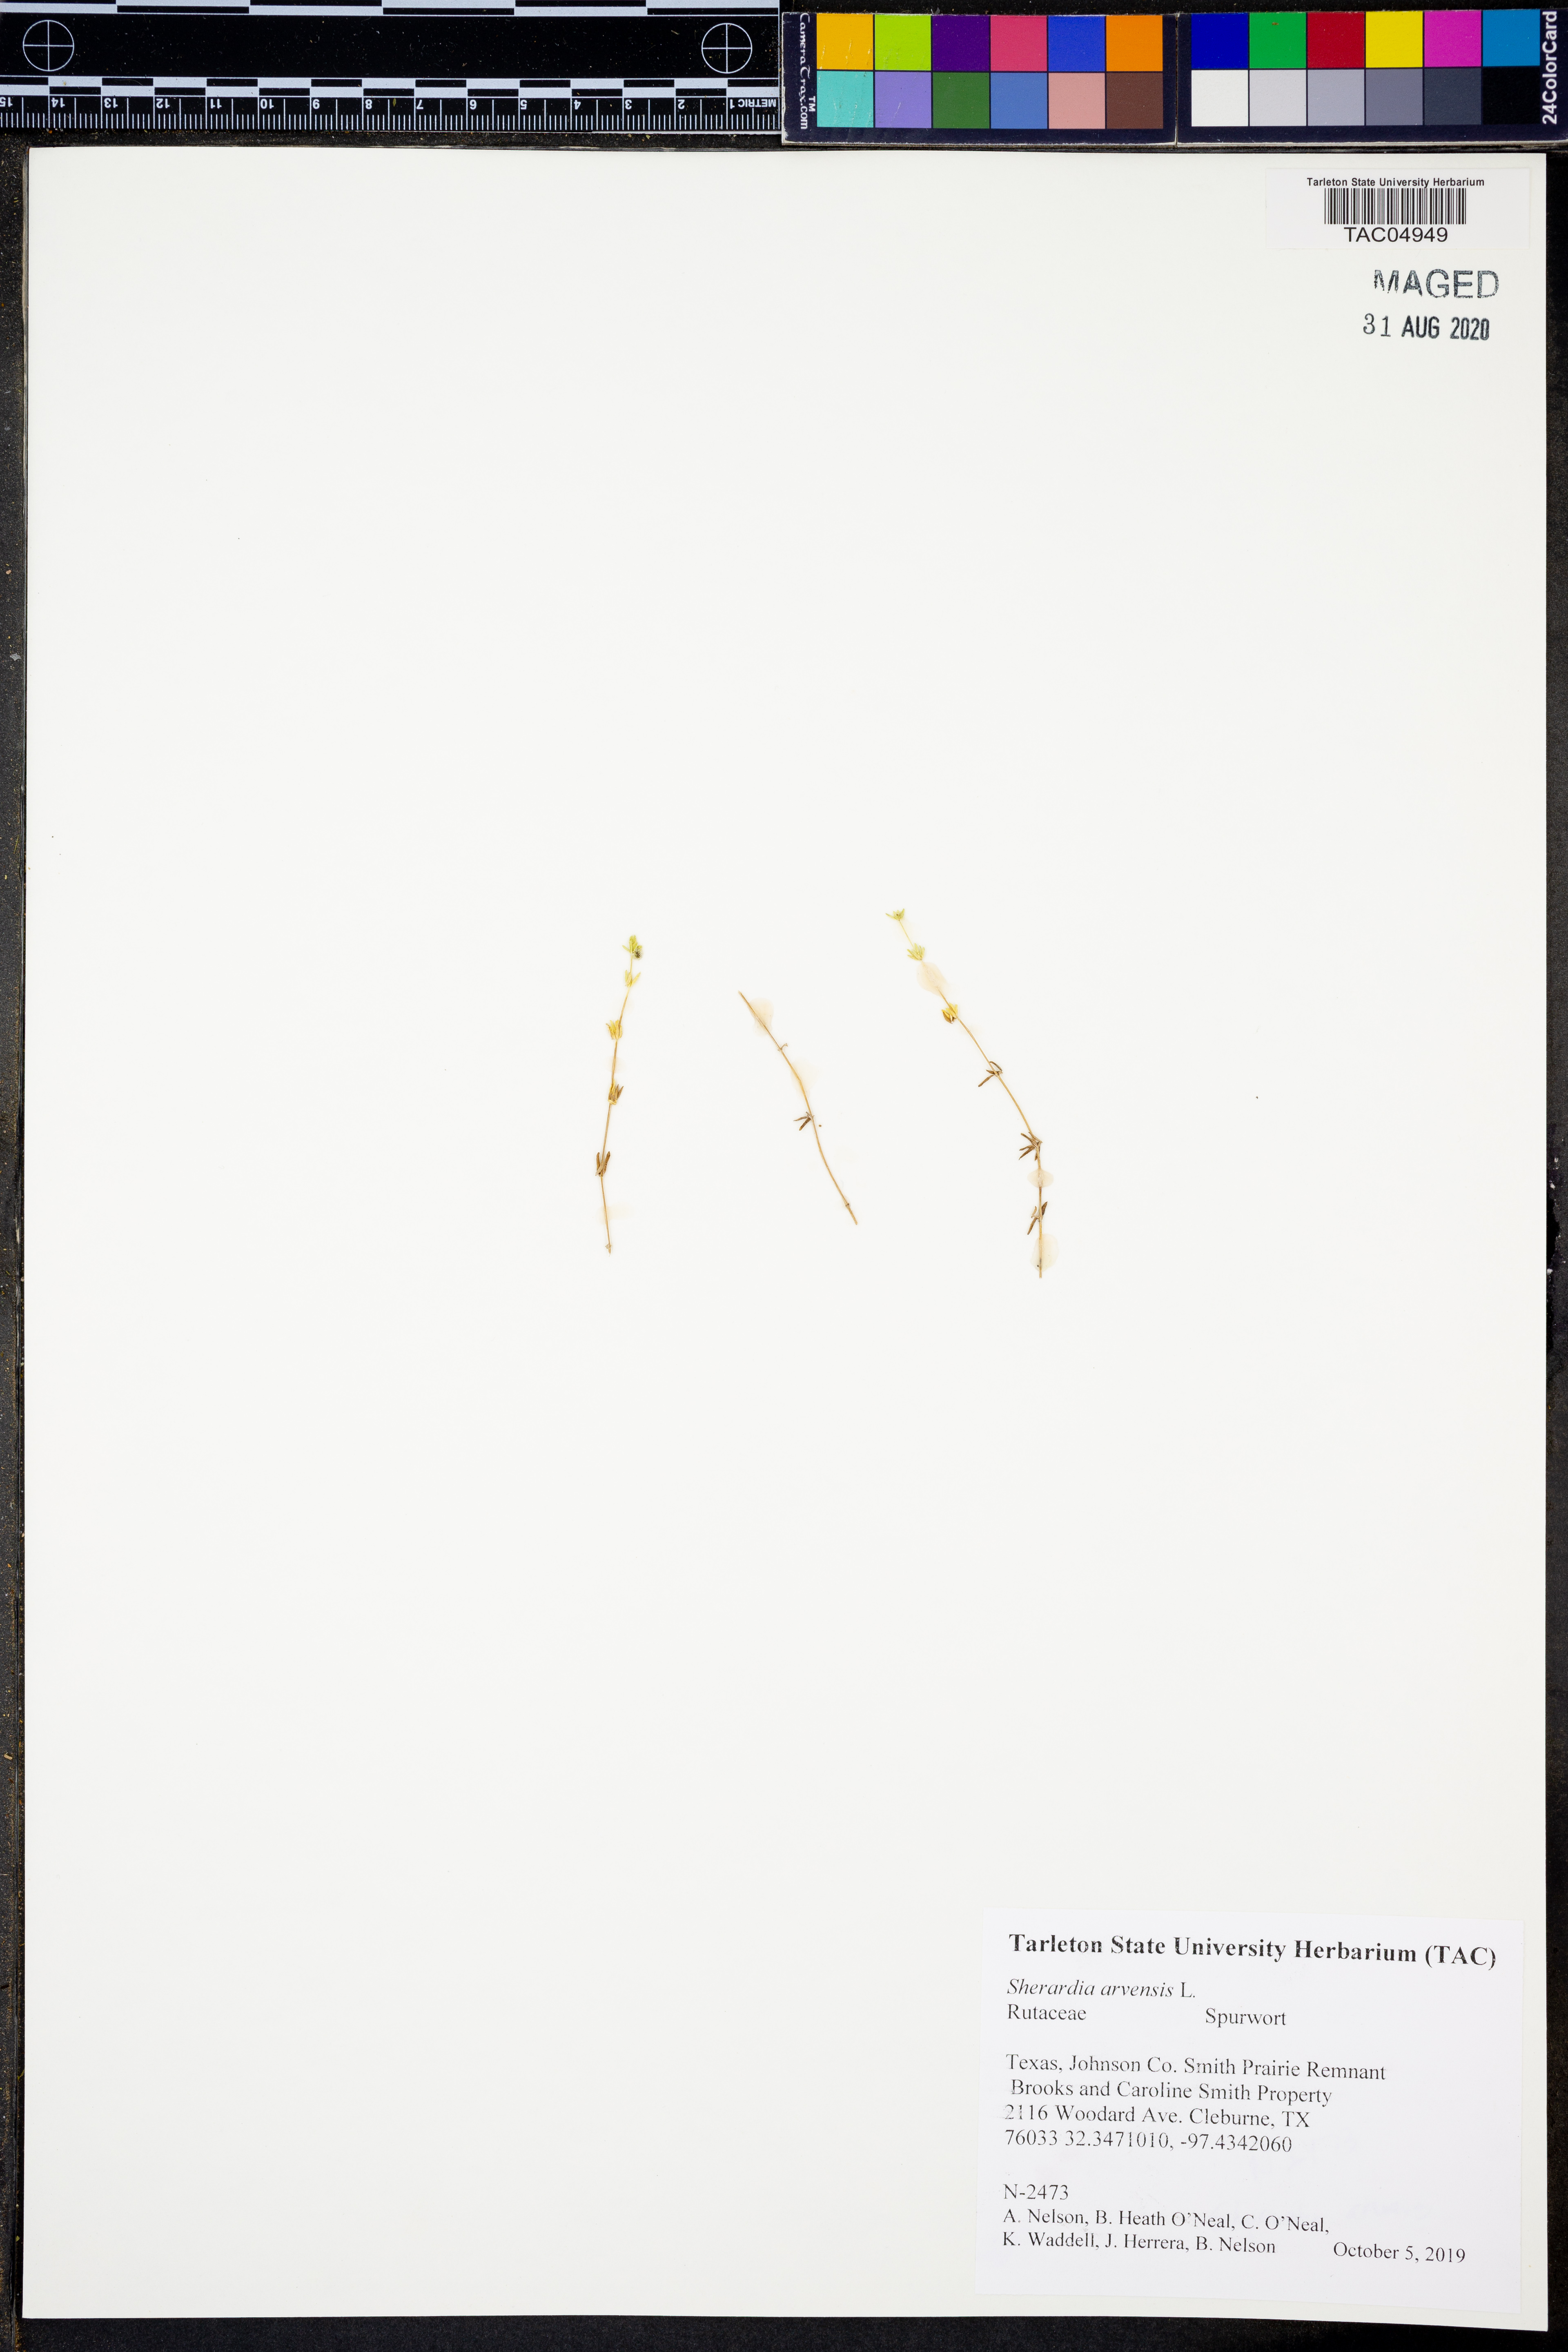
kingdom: Plantae
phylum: Tracheophyta
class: Magnoliopsida
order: Gentianales
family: Rubiaceae
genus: Sherardia
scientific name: Sherardia arvensis
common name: Field madder
